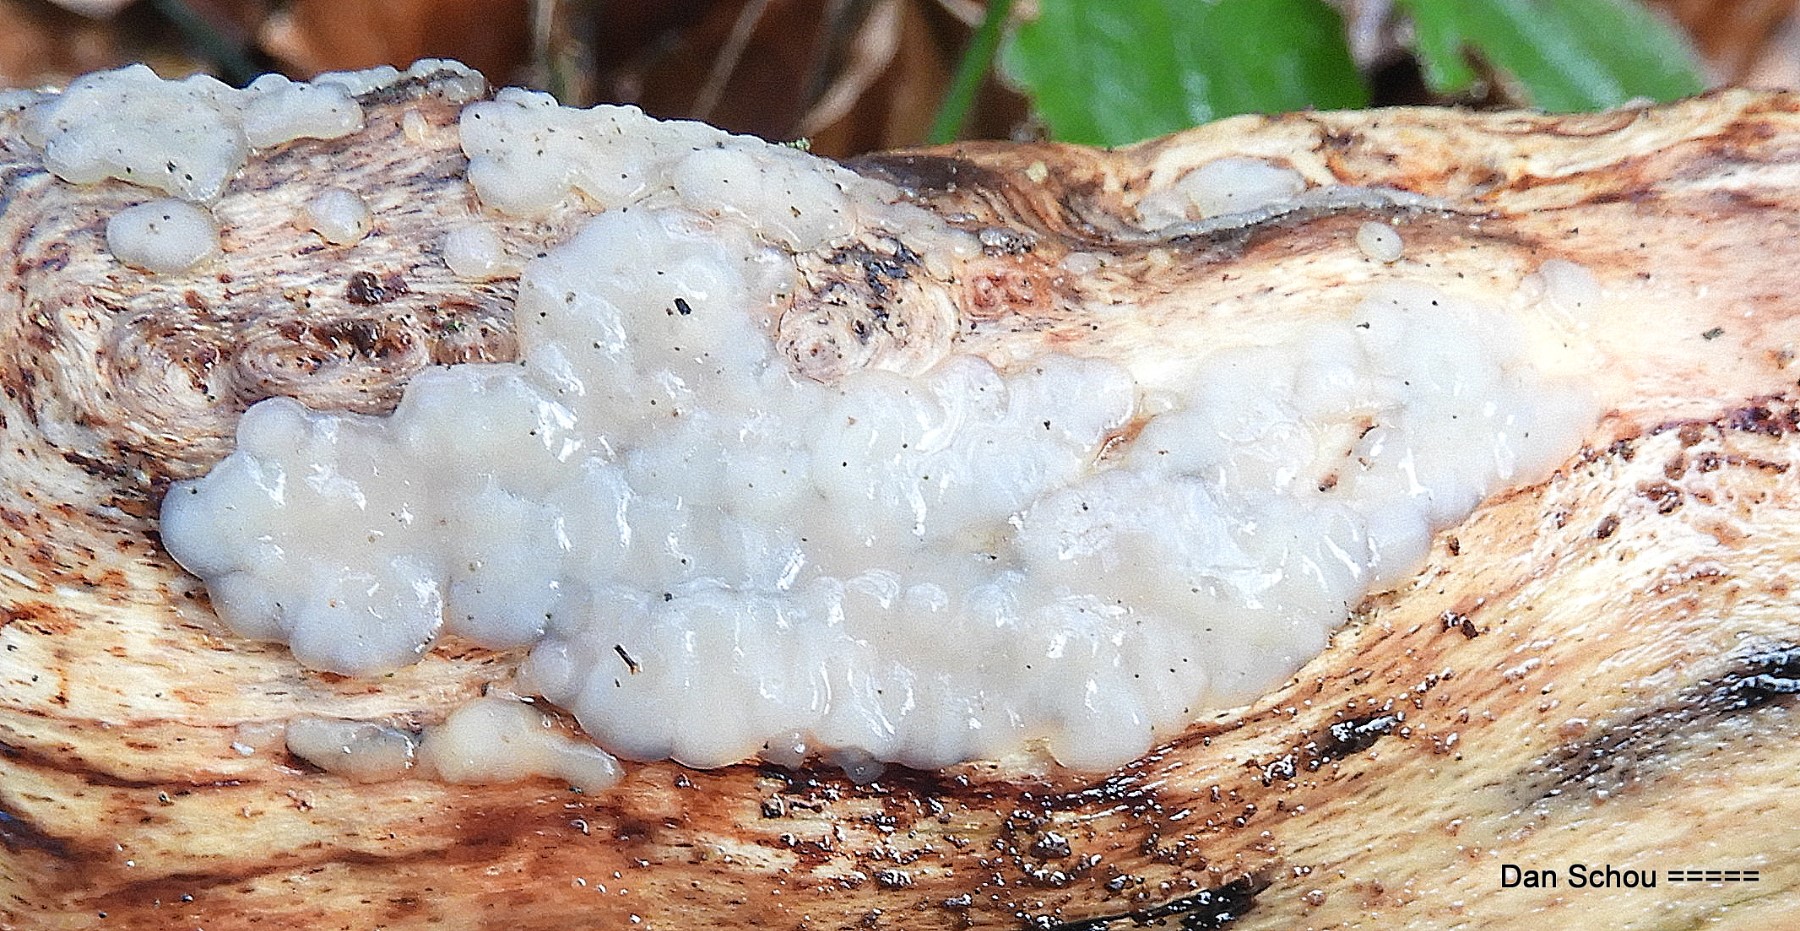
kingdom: Fungi
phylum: Basidiomycota
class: Agaricomycetes
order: Auriculariales
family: Auriculariaceae
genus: Exidia
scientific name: Exidia thuretiana
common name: hvidlig bævretop
